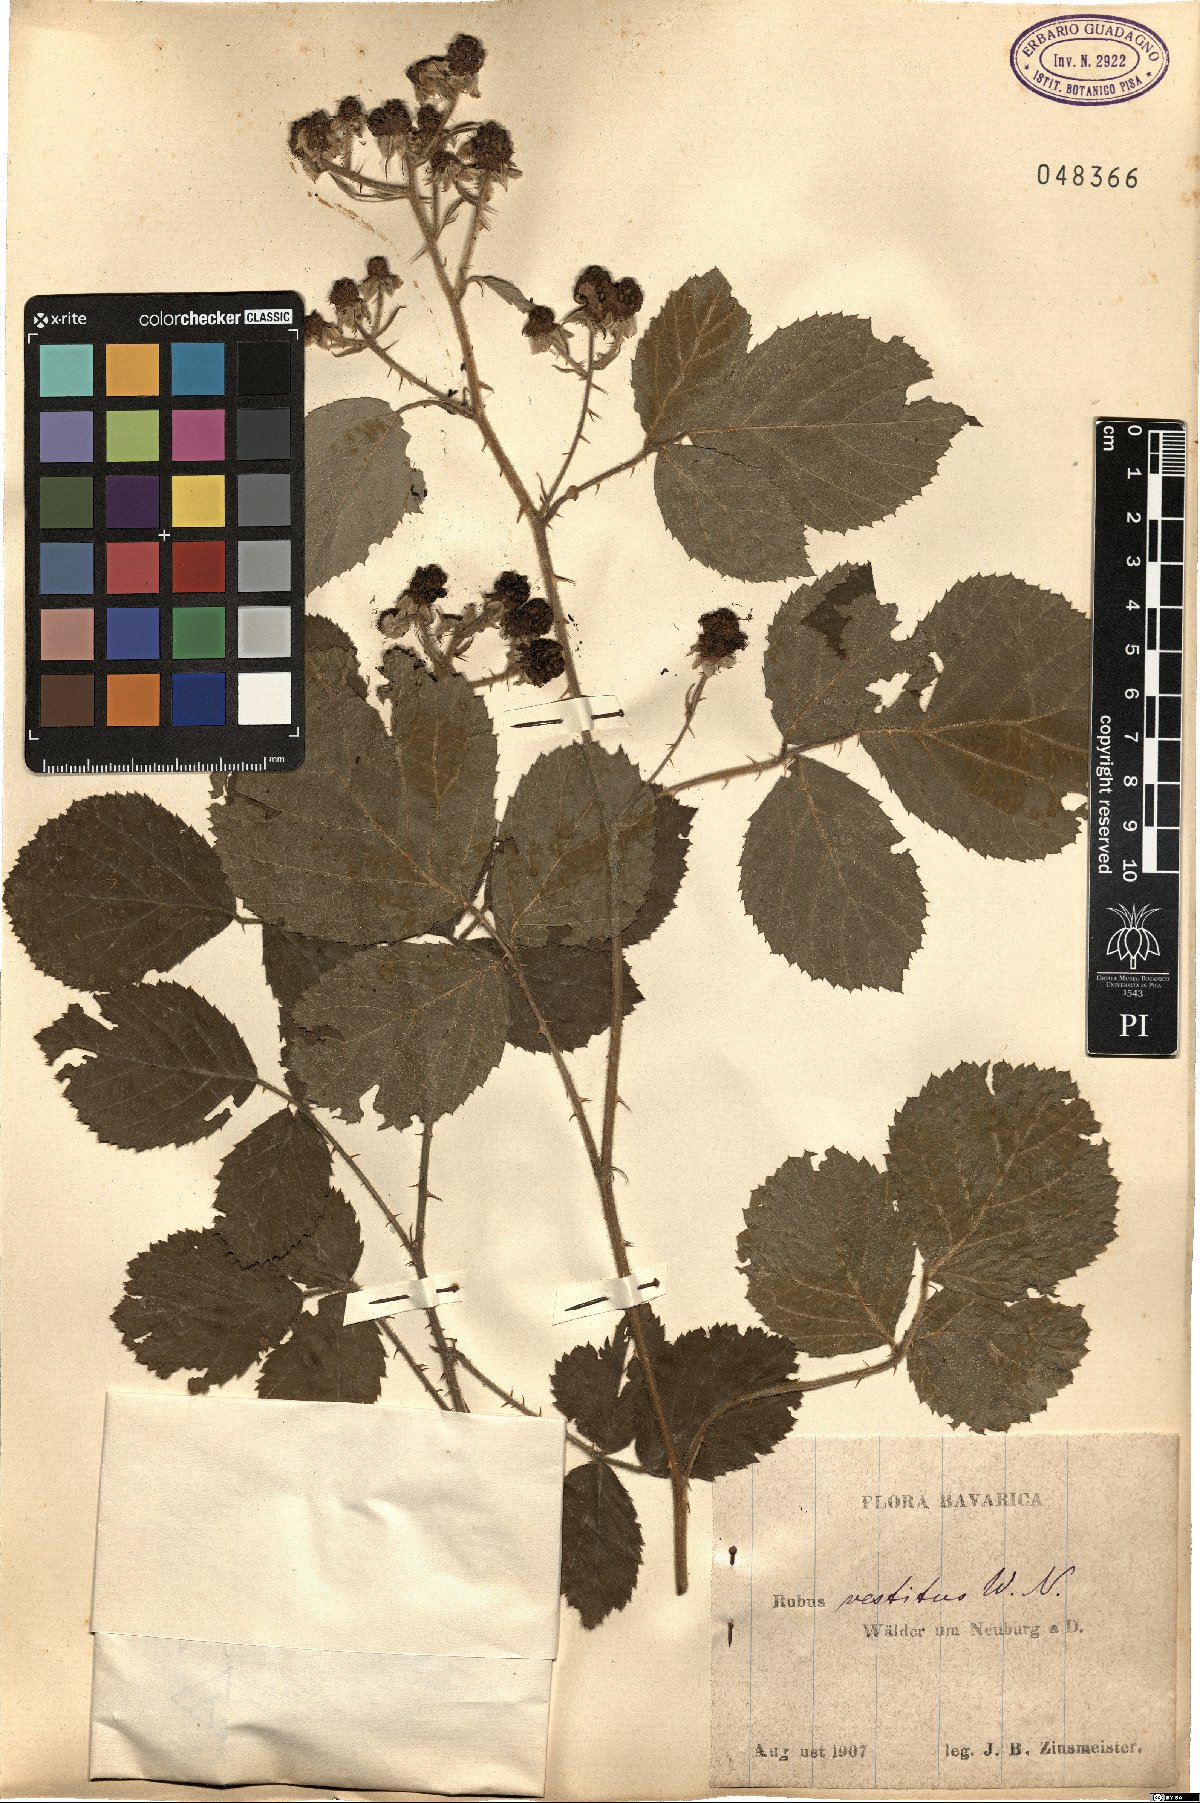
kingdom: Plantae
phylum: Tracheophyta
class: Magnoliopsida
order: Rosales
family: Rosaceae
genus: Rubus
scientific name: Rubus vestitus
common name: European blackberry
